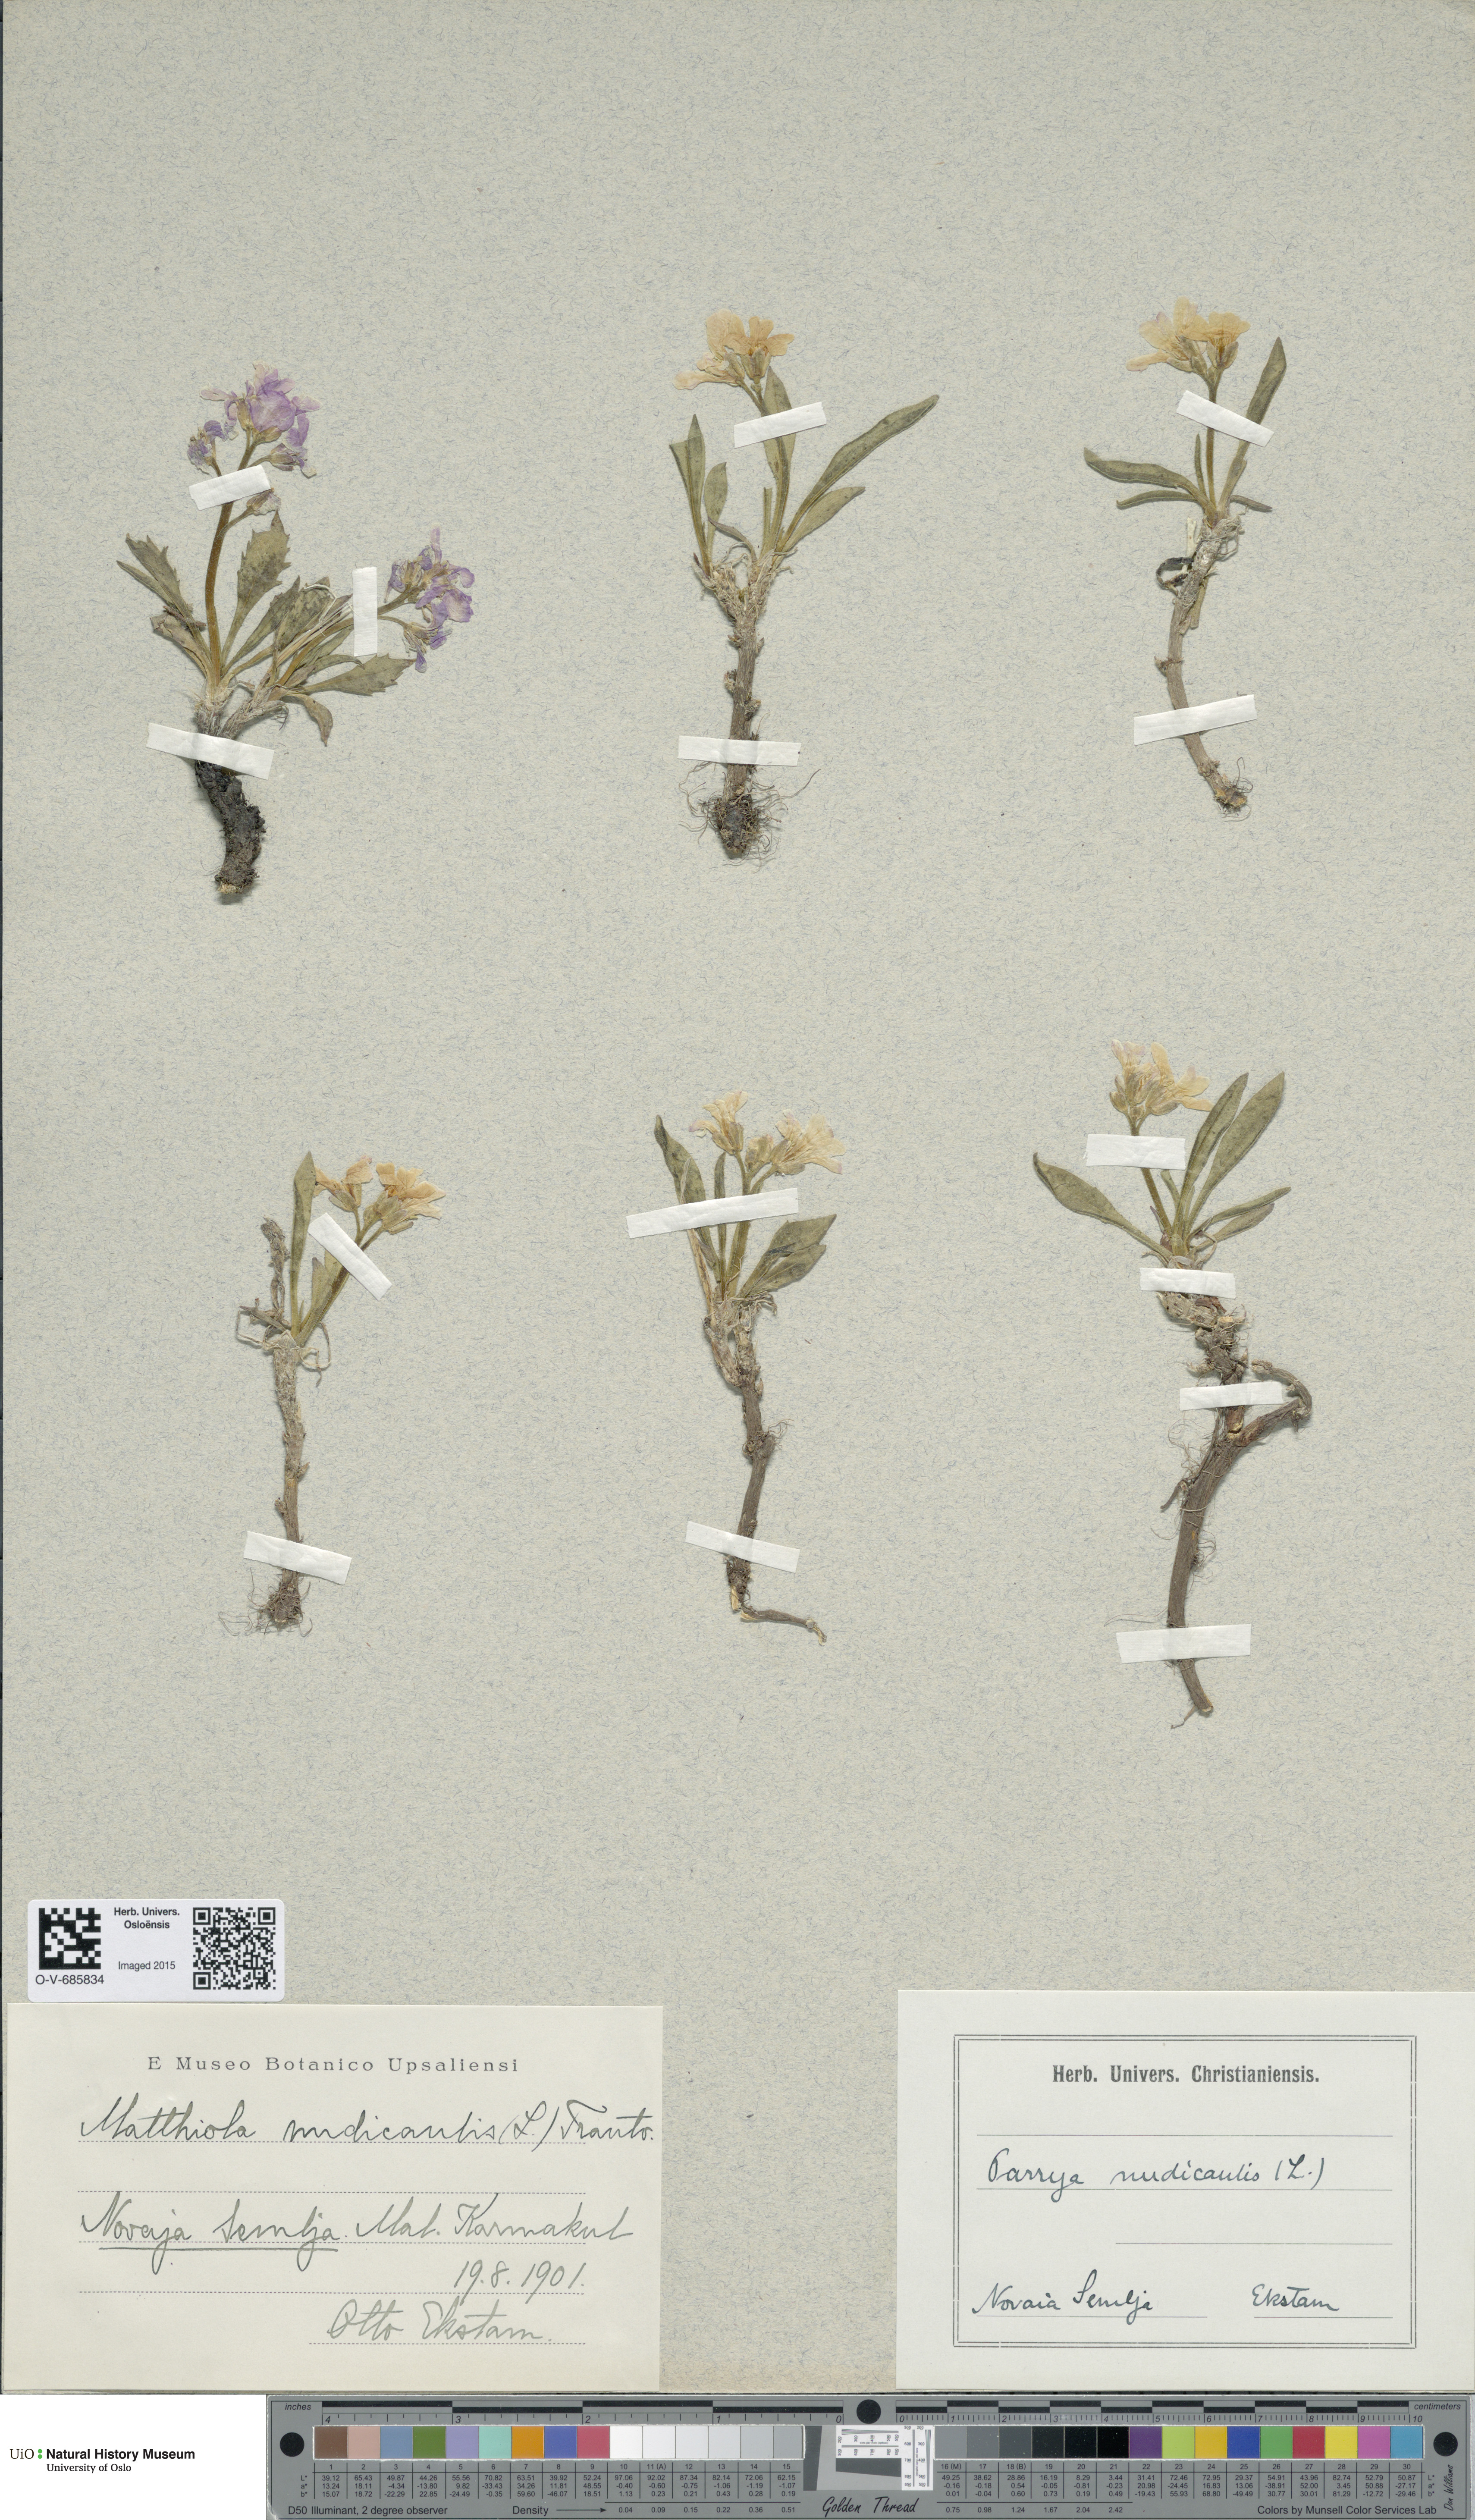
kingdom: Plantae
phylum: Tracheophyta
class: Magnoliopsida
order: Brassicales
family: Brassicaceae
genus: Parrya
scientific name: Parrya nudicaulis
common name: Naked-stemmed false wallflower
